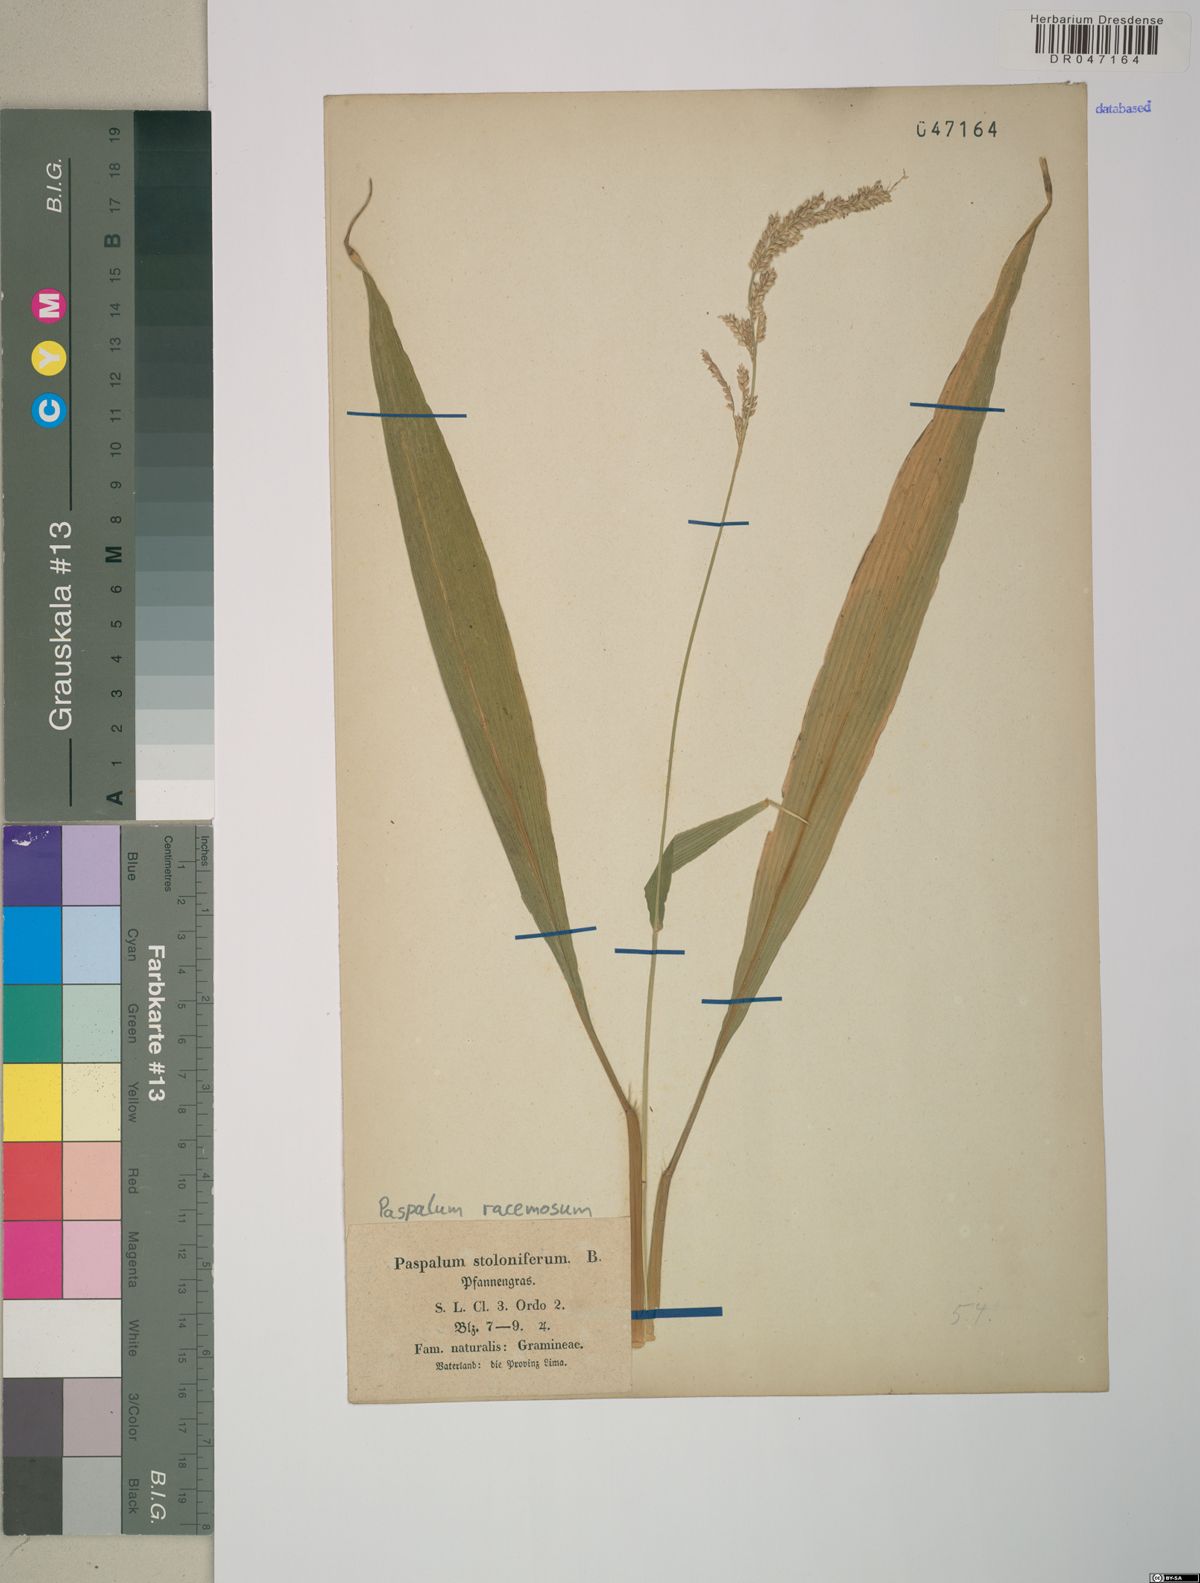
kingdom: Plantae
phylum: Tracheophyta
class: Liliopsida
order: Poales
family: Poaceae
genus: Paspalum
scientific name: Paspalum racemosum
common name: Peruvian paspalum
